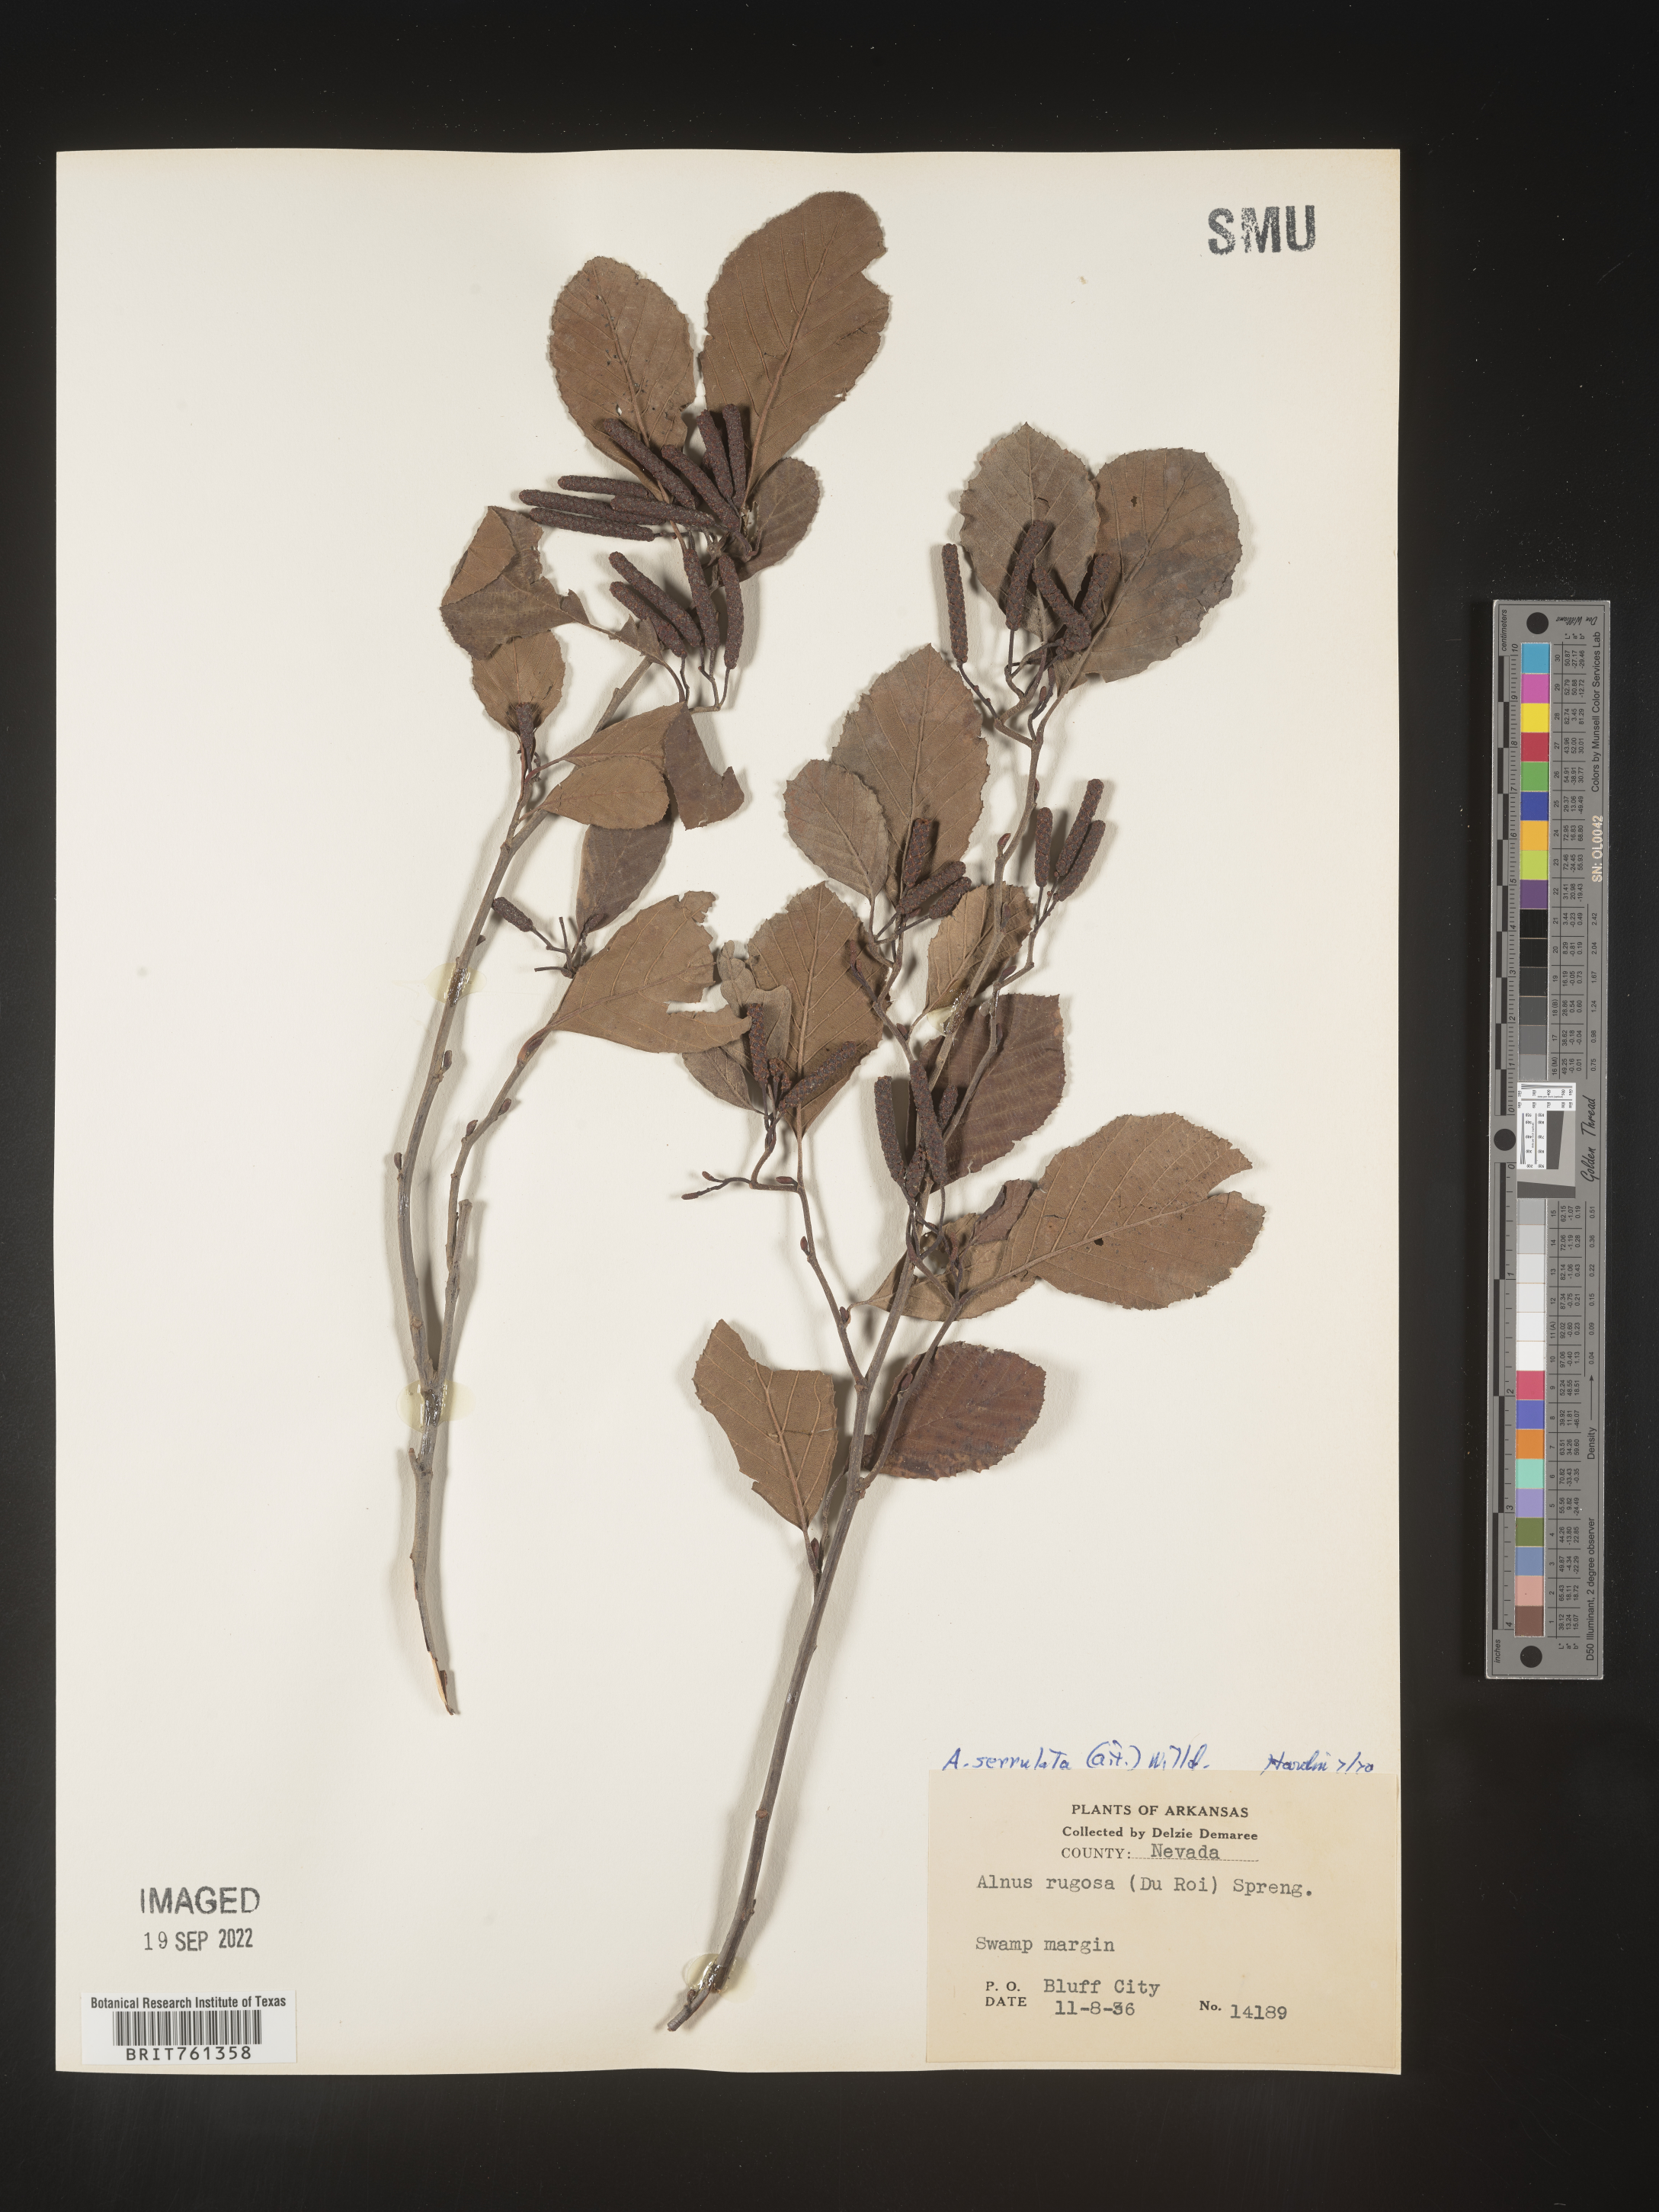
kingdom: Plantae
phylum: Tracheophyta
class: Magnoliopsida
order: Fagales
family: Betulaceae
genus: Alnus
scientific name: Alnus serrulata
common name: Hazel alder
